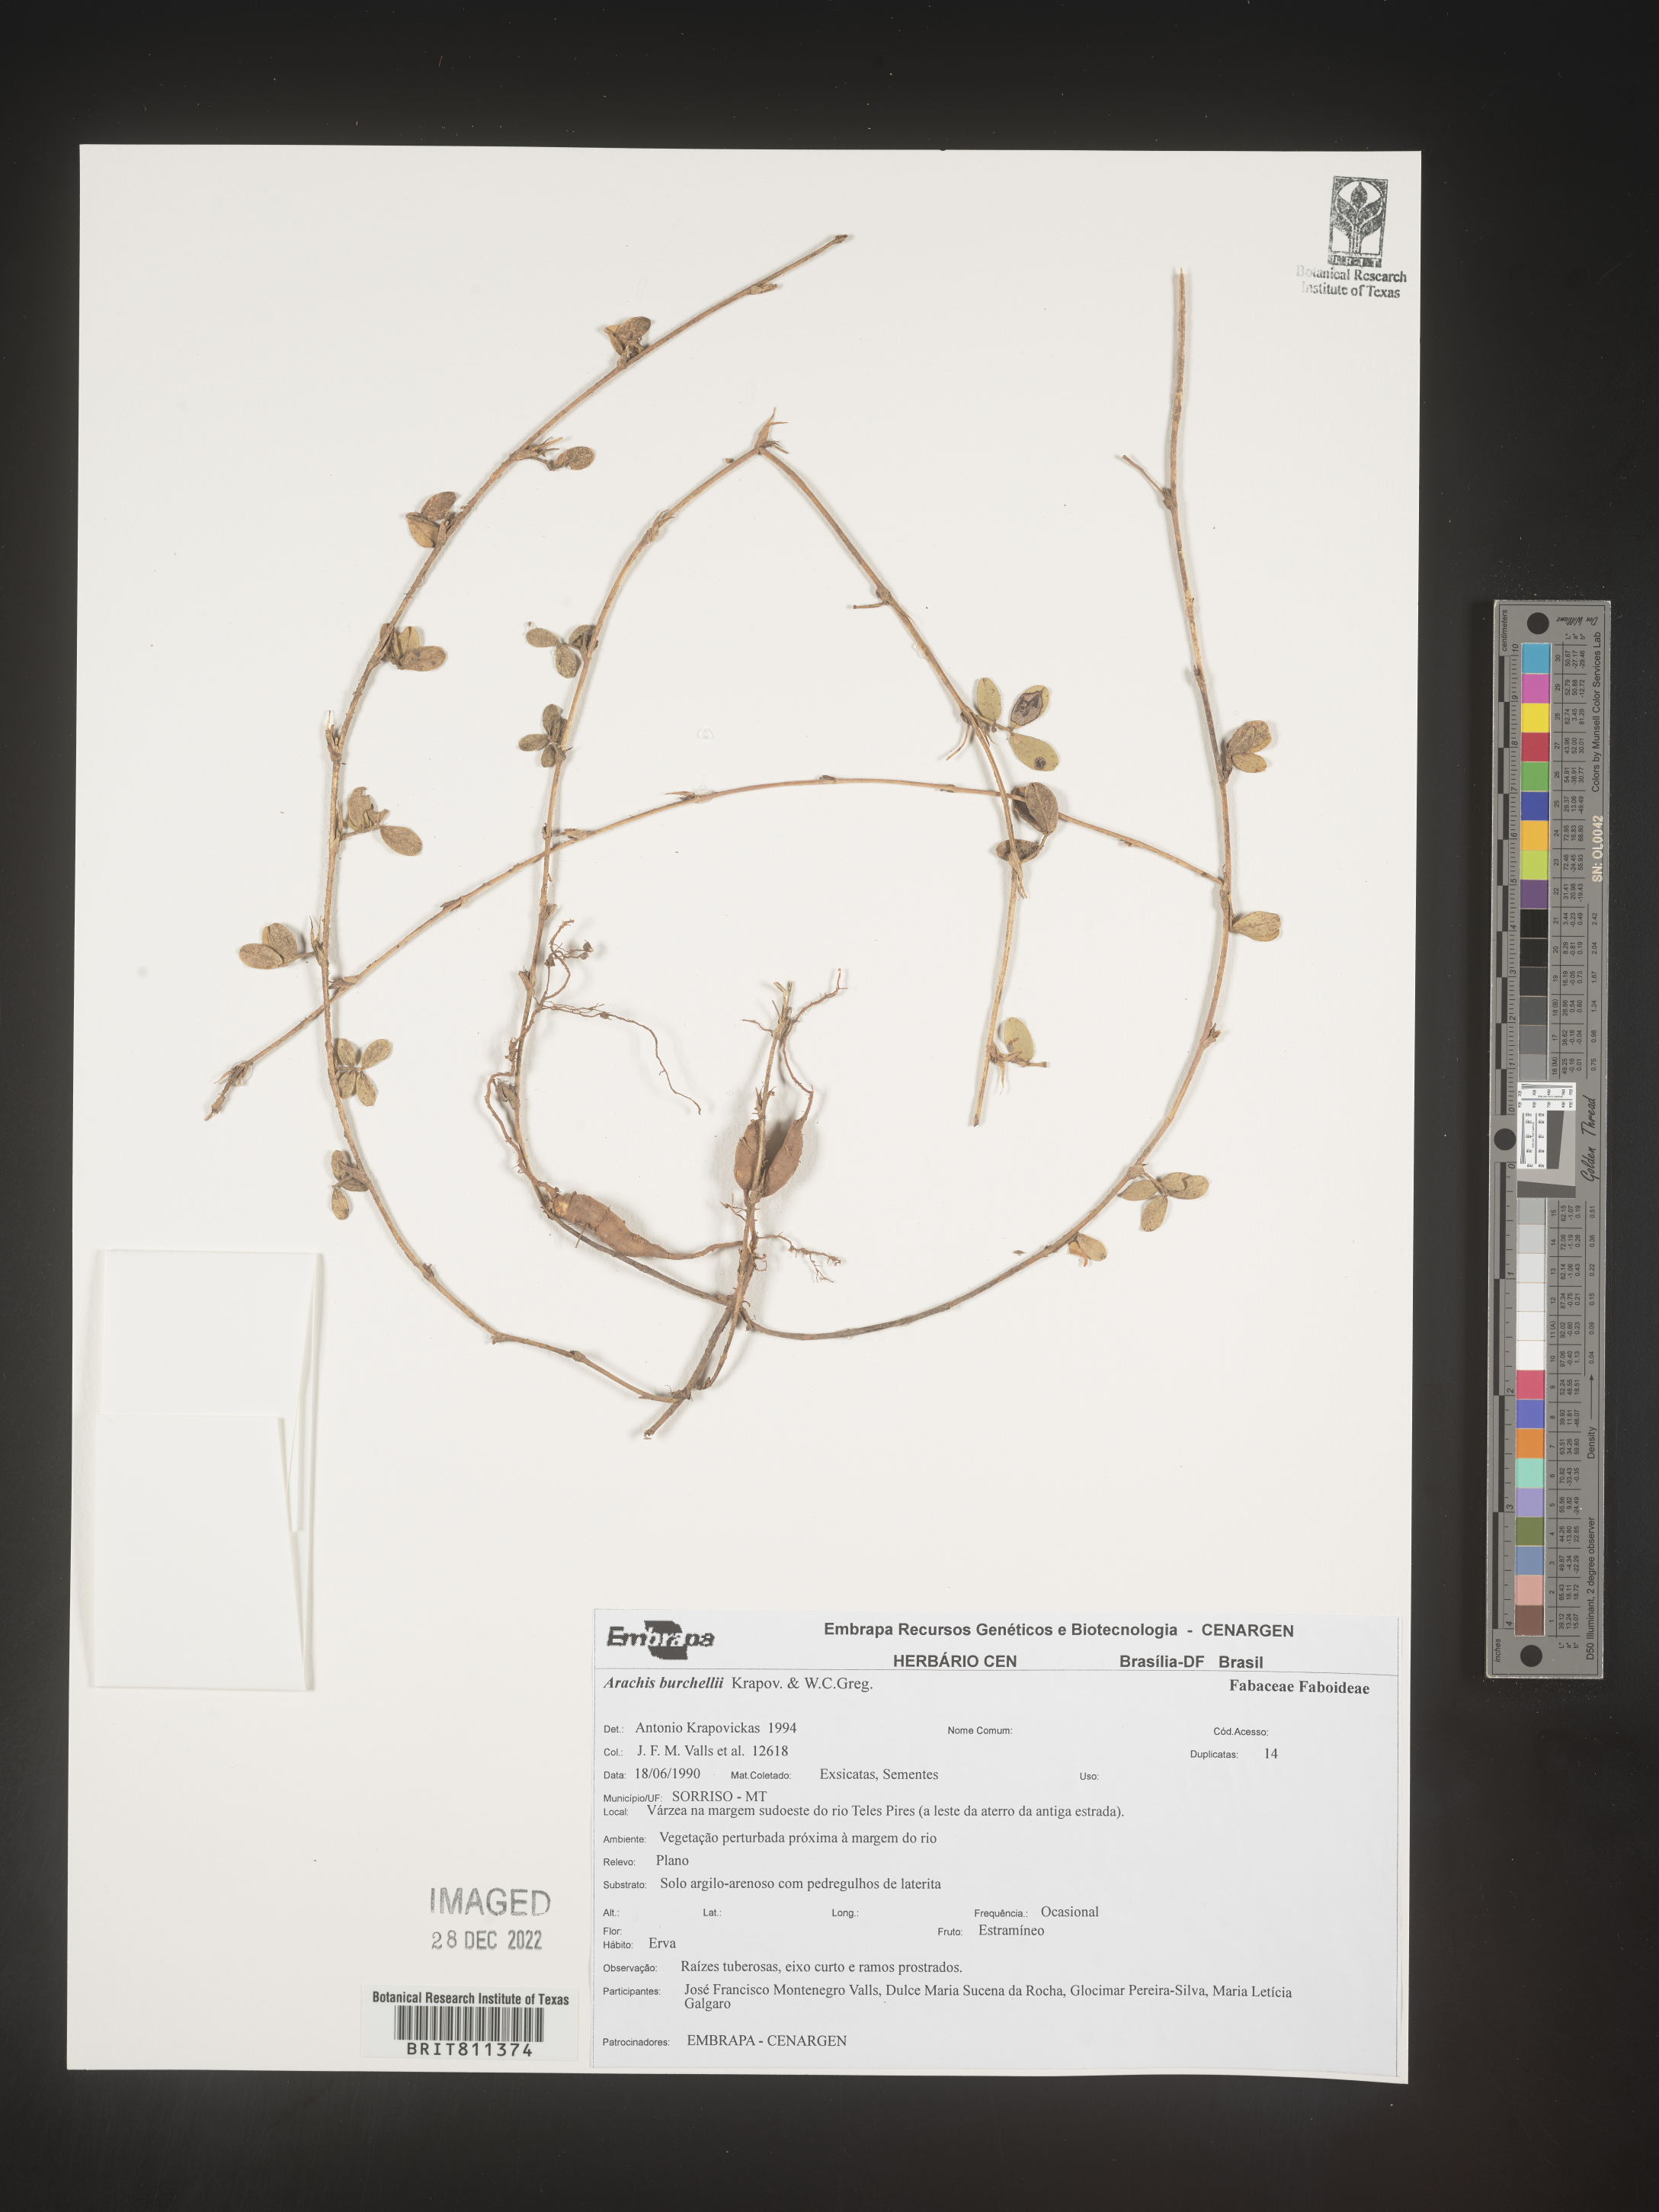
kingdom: Plantae
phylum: Tracheophyta
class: Magnoliopsida
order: Fabales
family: Fabaceae
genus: Arachis
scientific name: Arachis
